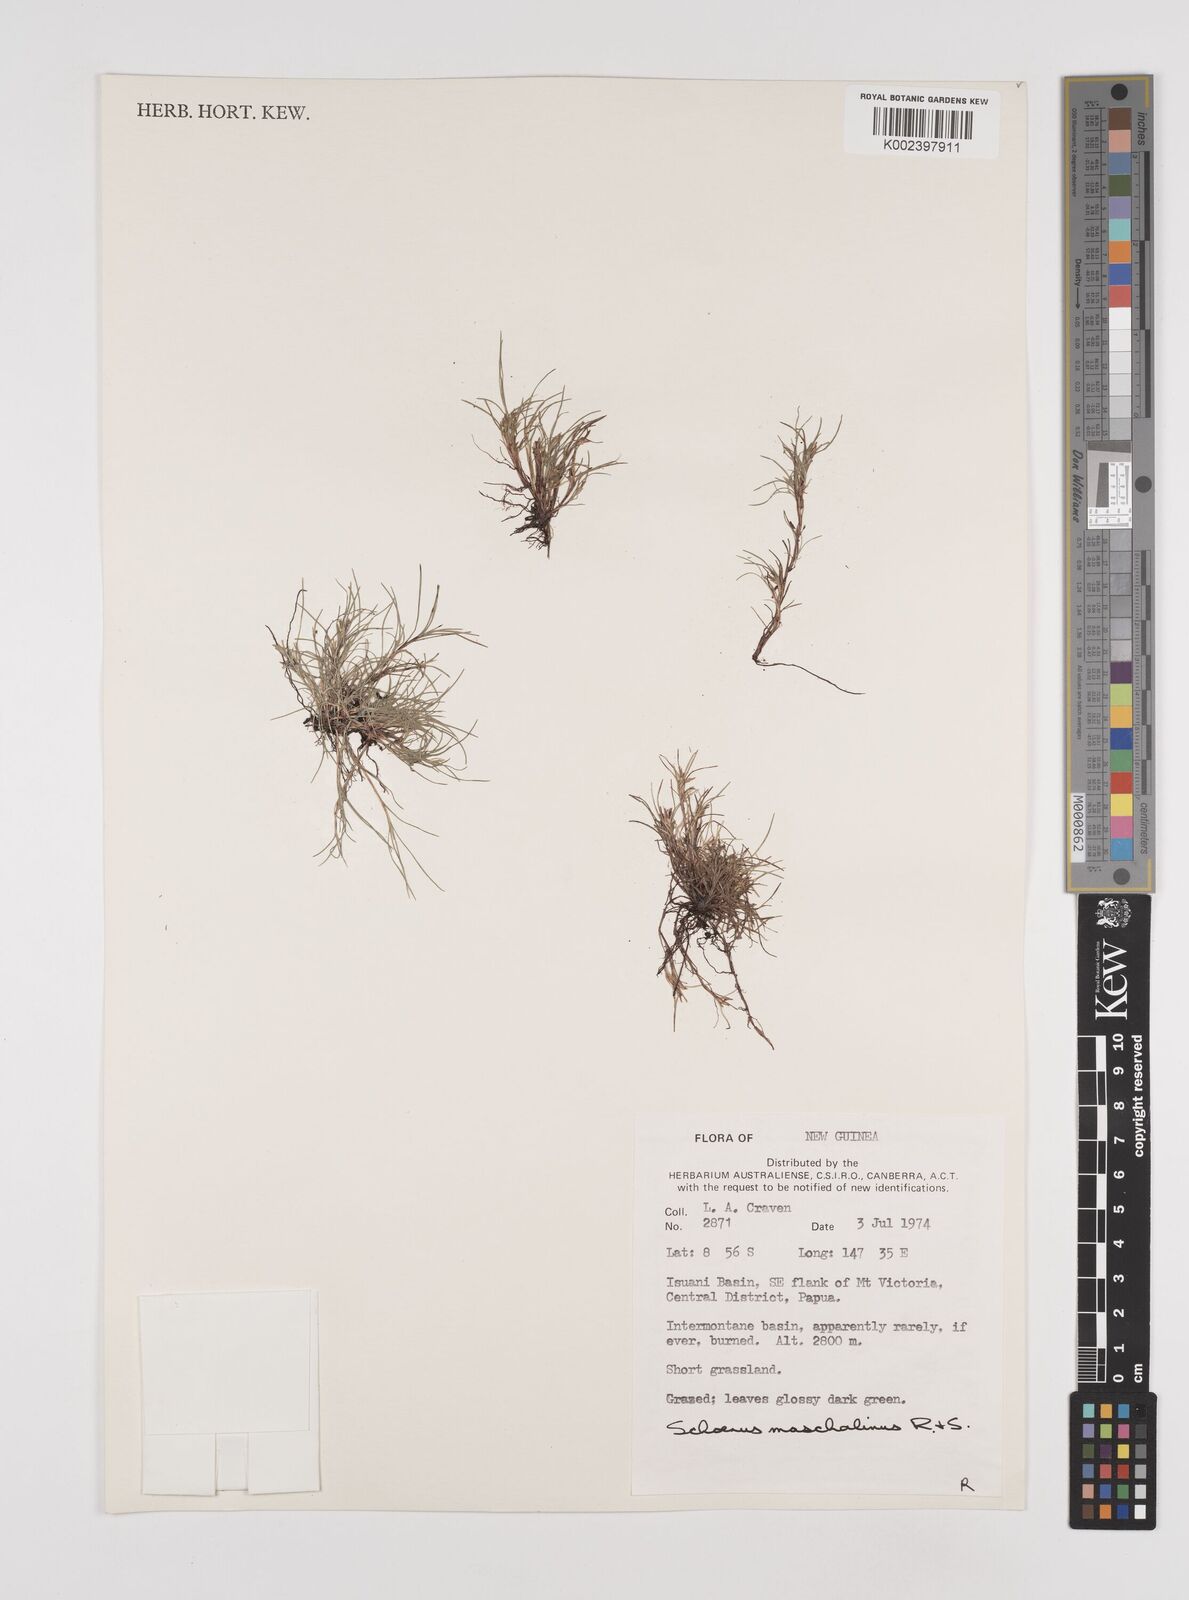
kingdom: Plantae
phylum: Tracheophyta
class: Liliopsida
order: Poales
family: Cyperaceae
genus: Schoenus
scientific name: Schoenus maschalinus
